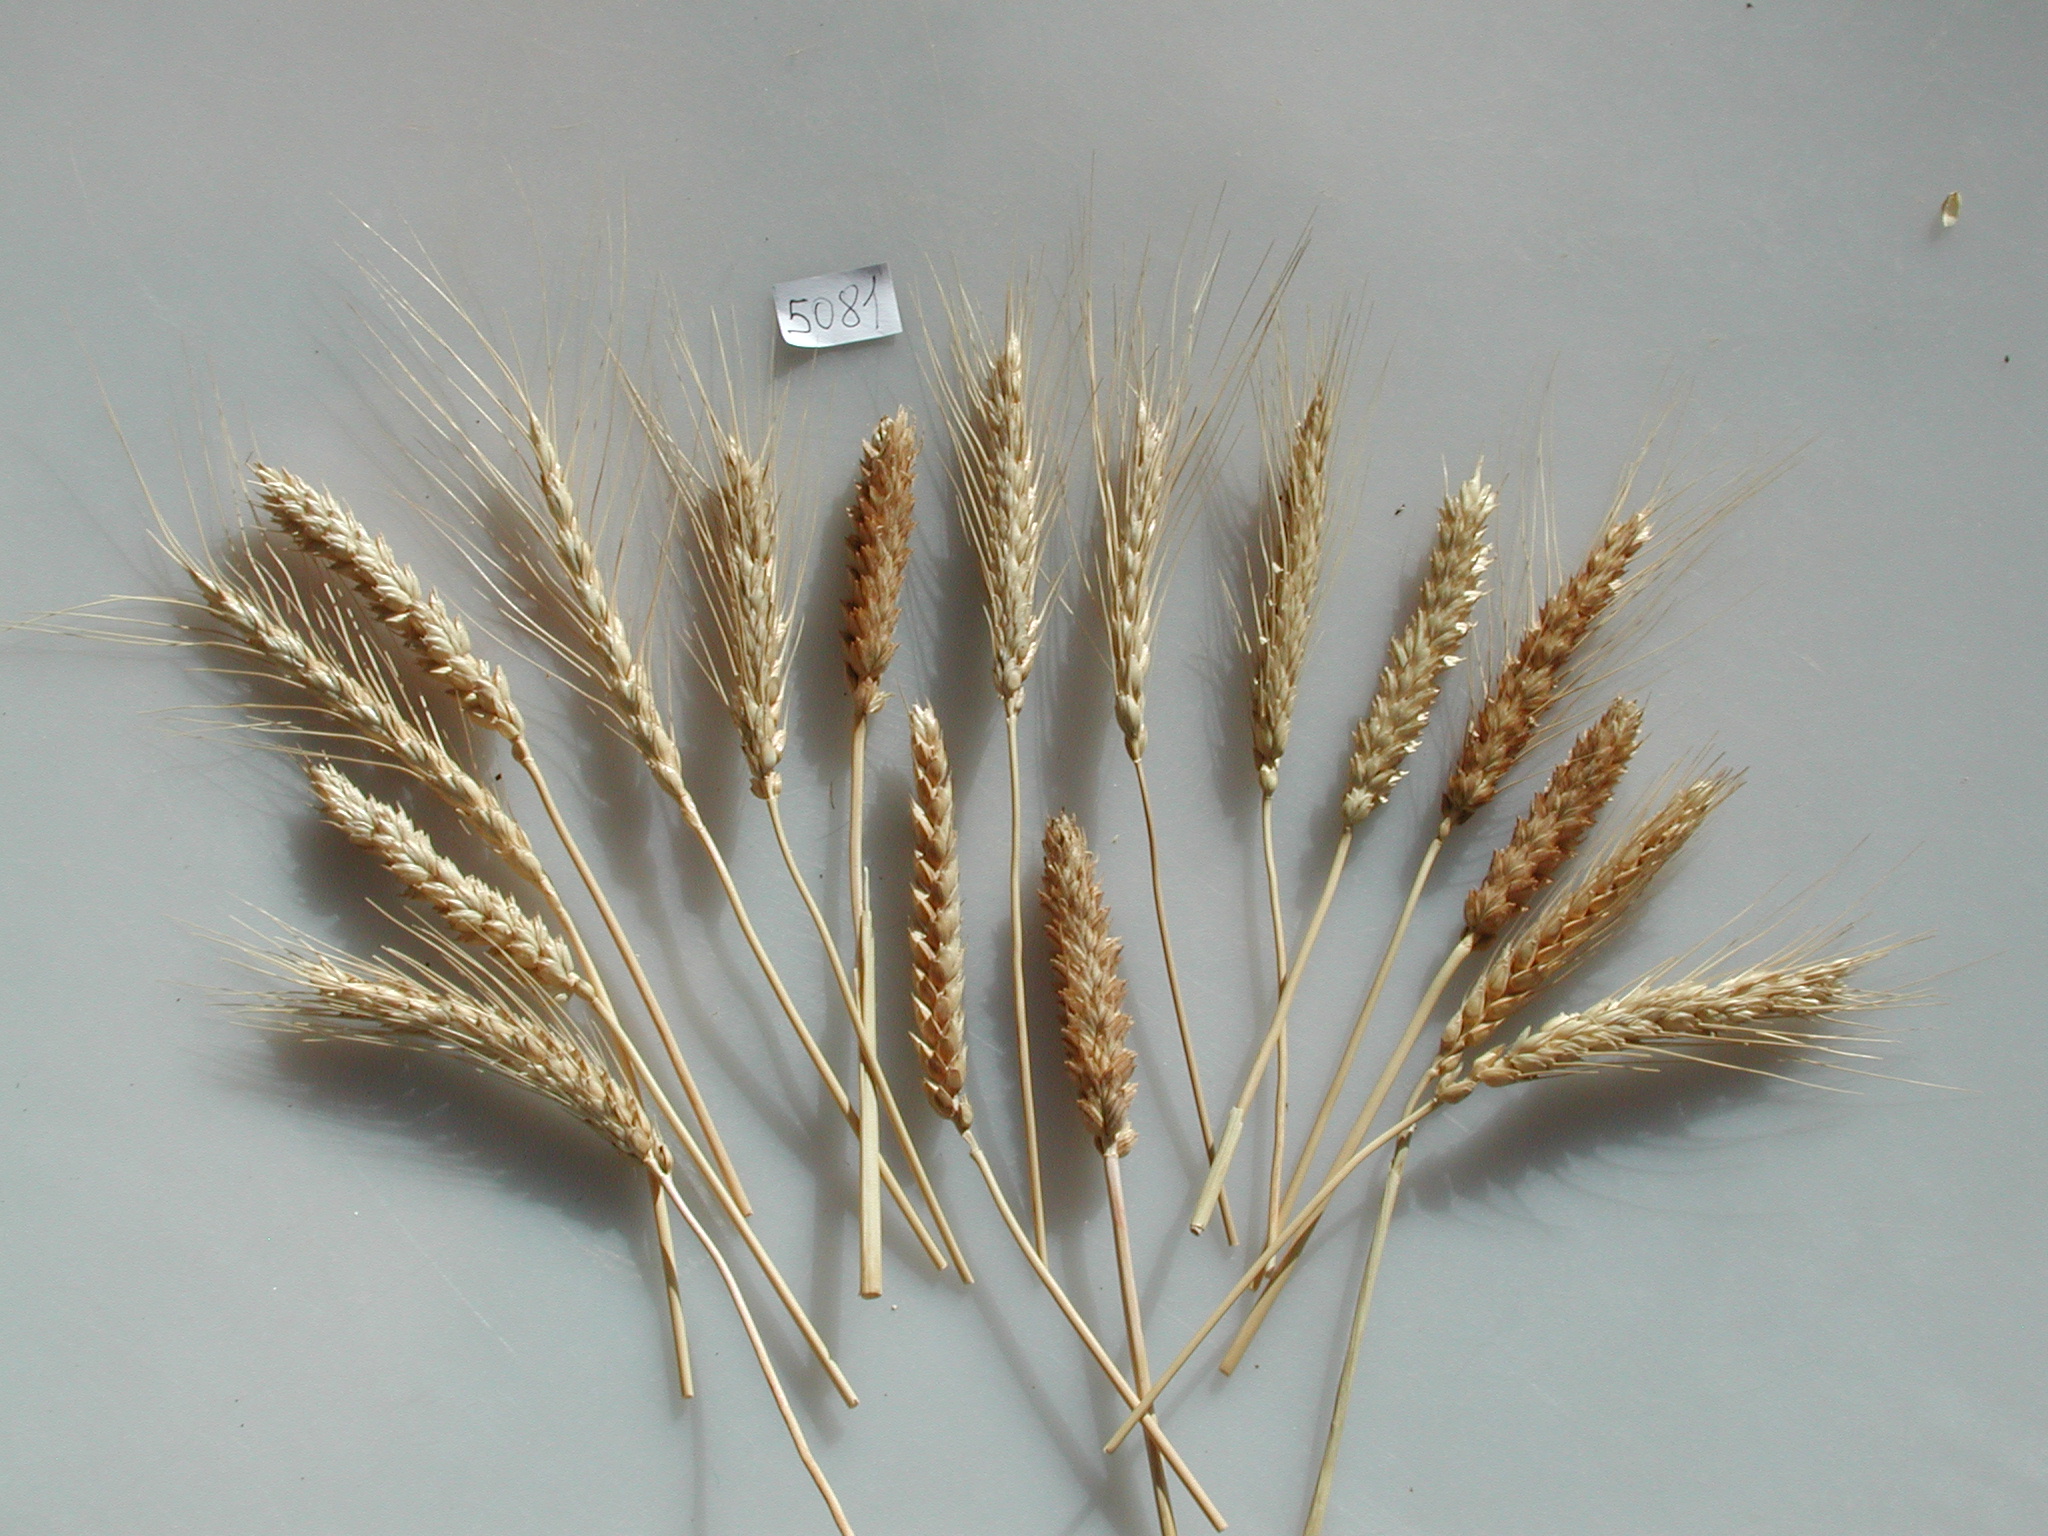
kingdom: Plantae
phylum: Tracheophyta
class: Liliopsida
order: Poales
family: Poaceae
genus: Triticum
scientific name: Triticum aestivum
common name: Wheat
